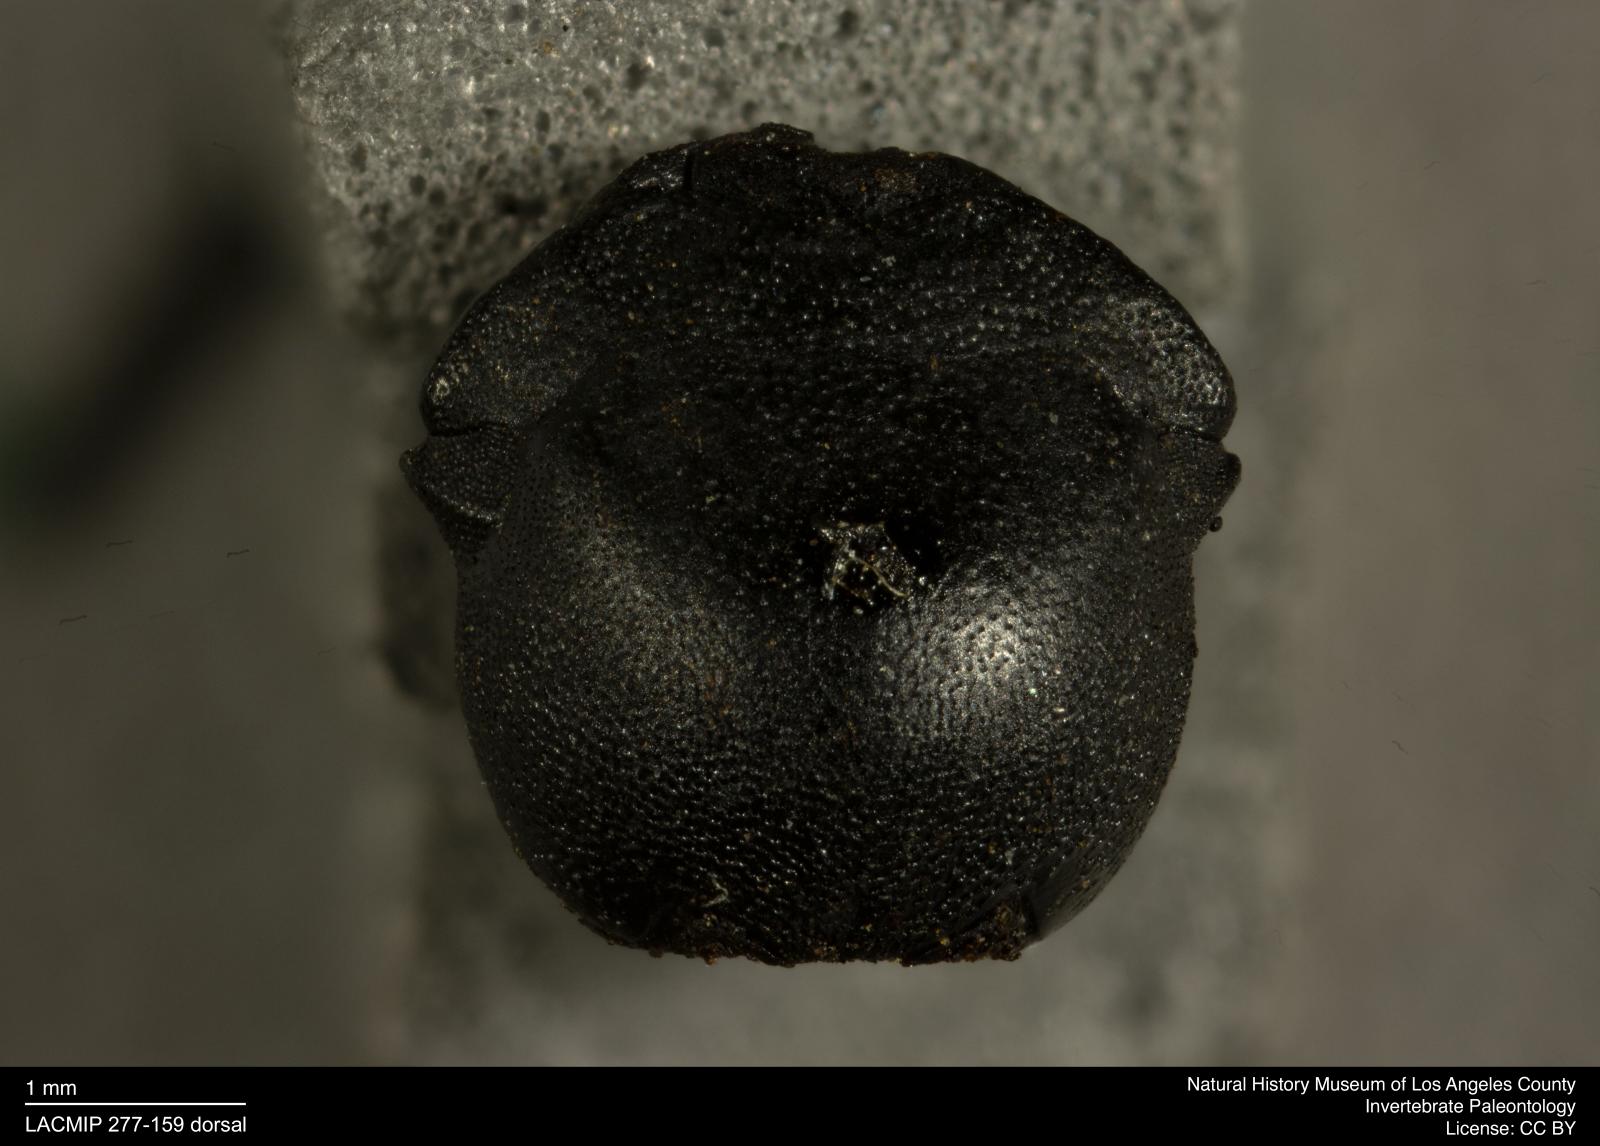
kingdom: Animalia
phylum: Arthropoda
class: Insecta
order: Coleoptera
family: Tenebrionidae
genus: Coniontis
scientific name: Coniontis abdominalis
